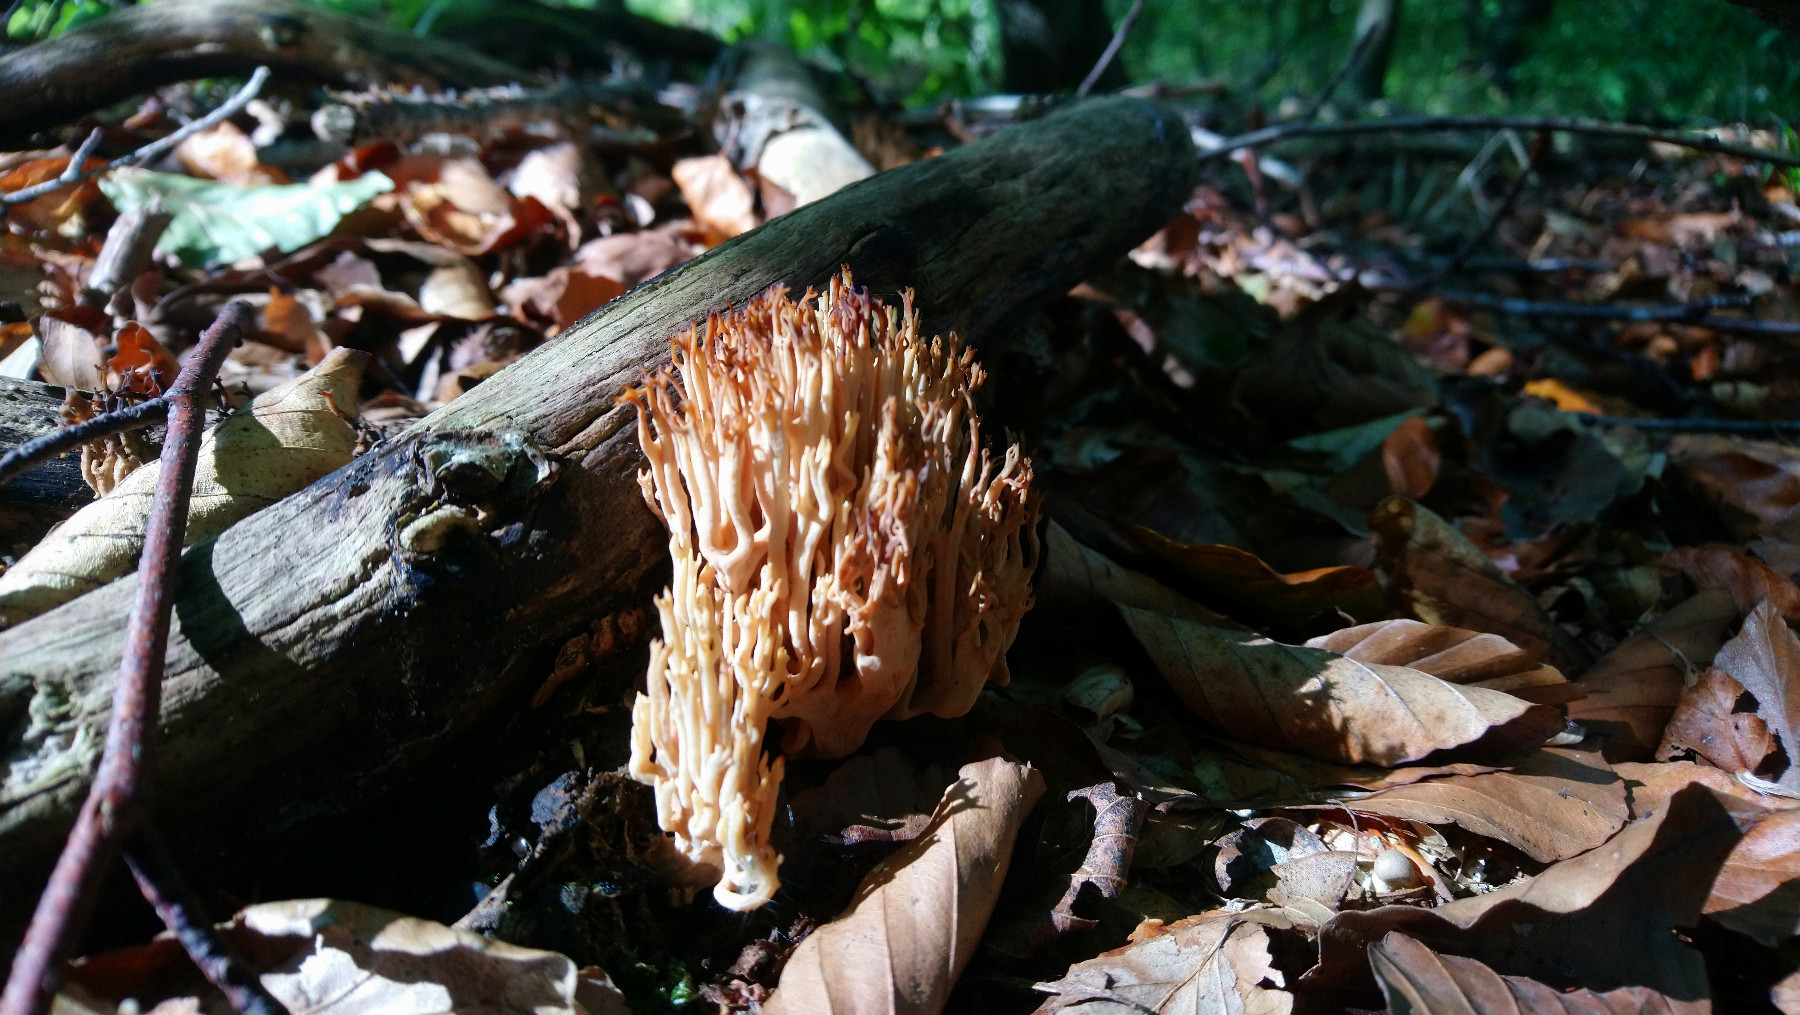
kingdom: Fungi
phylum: Basidiomycota
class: Agaricomycetes
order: Gomphales
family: Gomphaceae
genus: Ramaria
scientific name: Ramaria stricta
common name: rank koralsvamp
